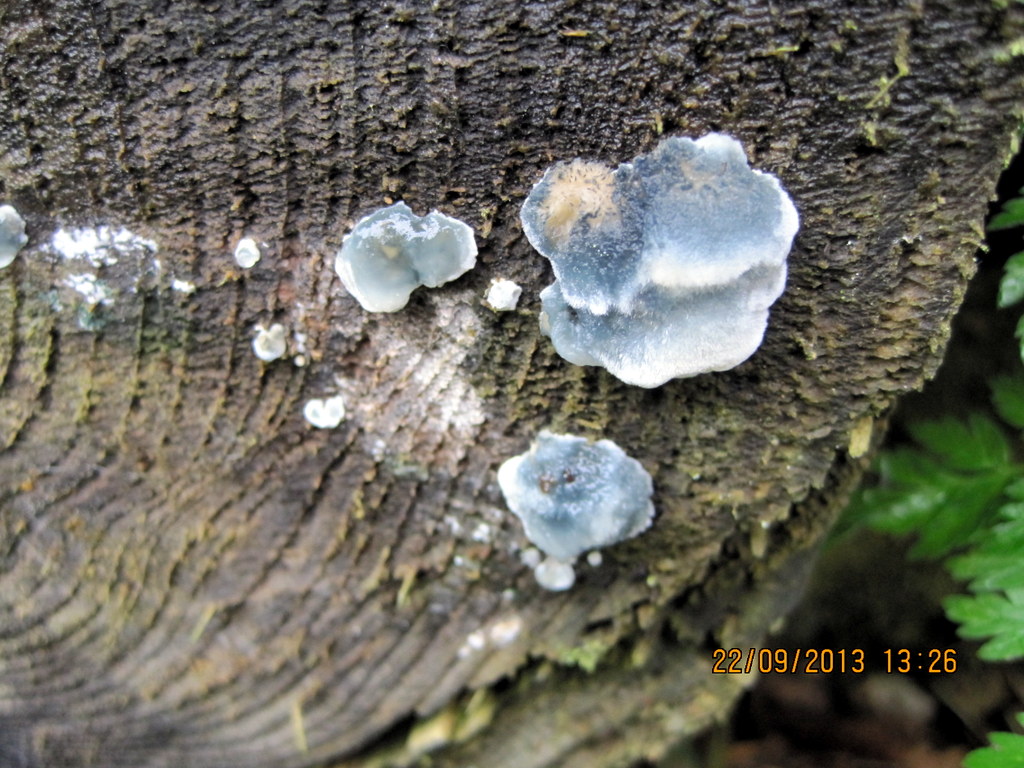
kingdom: Fungi
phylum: Basidiomycota
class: Agaricomycetes
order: Polyporales
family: Polyporaceae
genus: Cyanosporus
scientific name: Cyanosporus caesius
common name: blålig kødporesvamp
